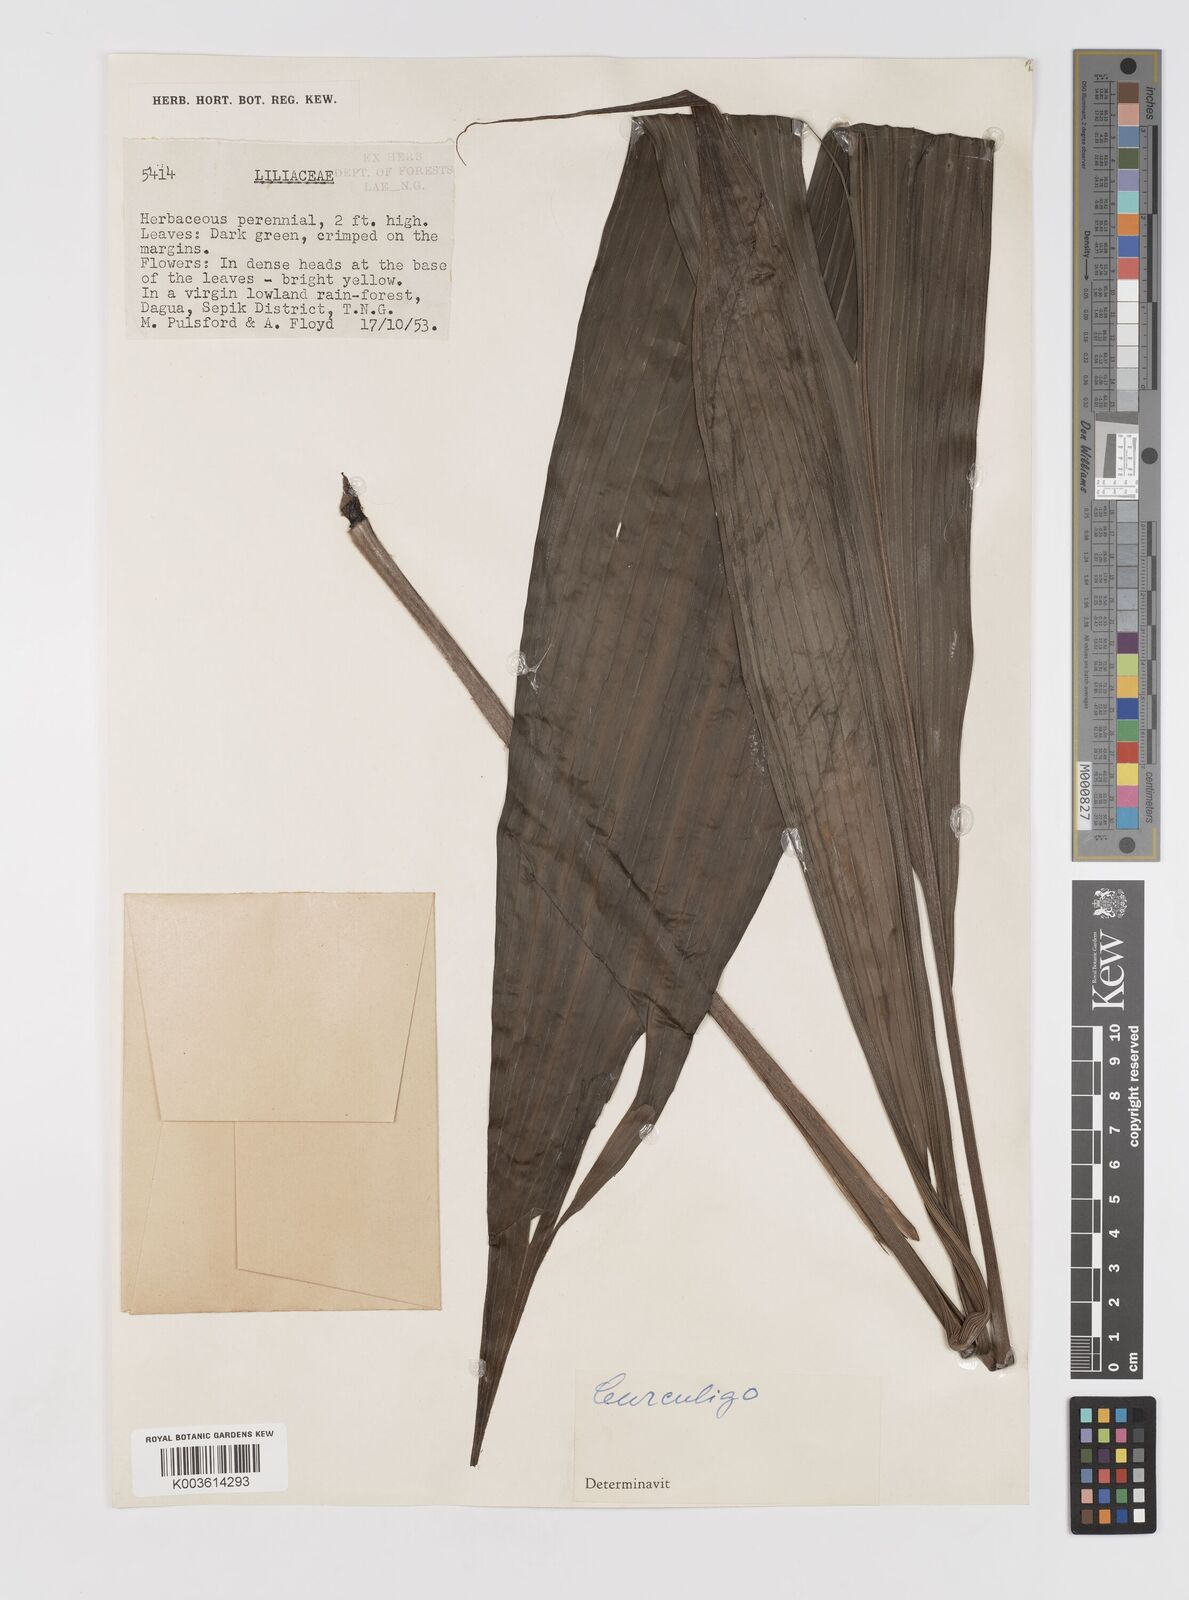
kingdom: Plantae
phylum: Tracheophyta
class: Liliopsida
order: Asparagales
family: Hypoxidaceae
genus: Curculigo
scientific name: Curculigo
